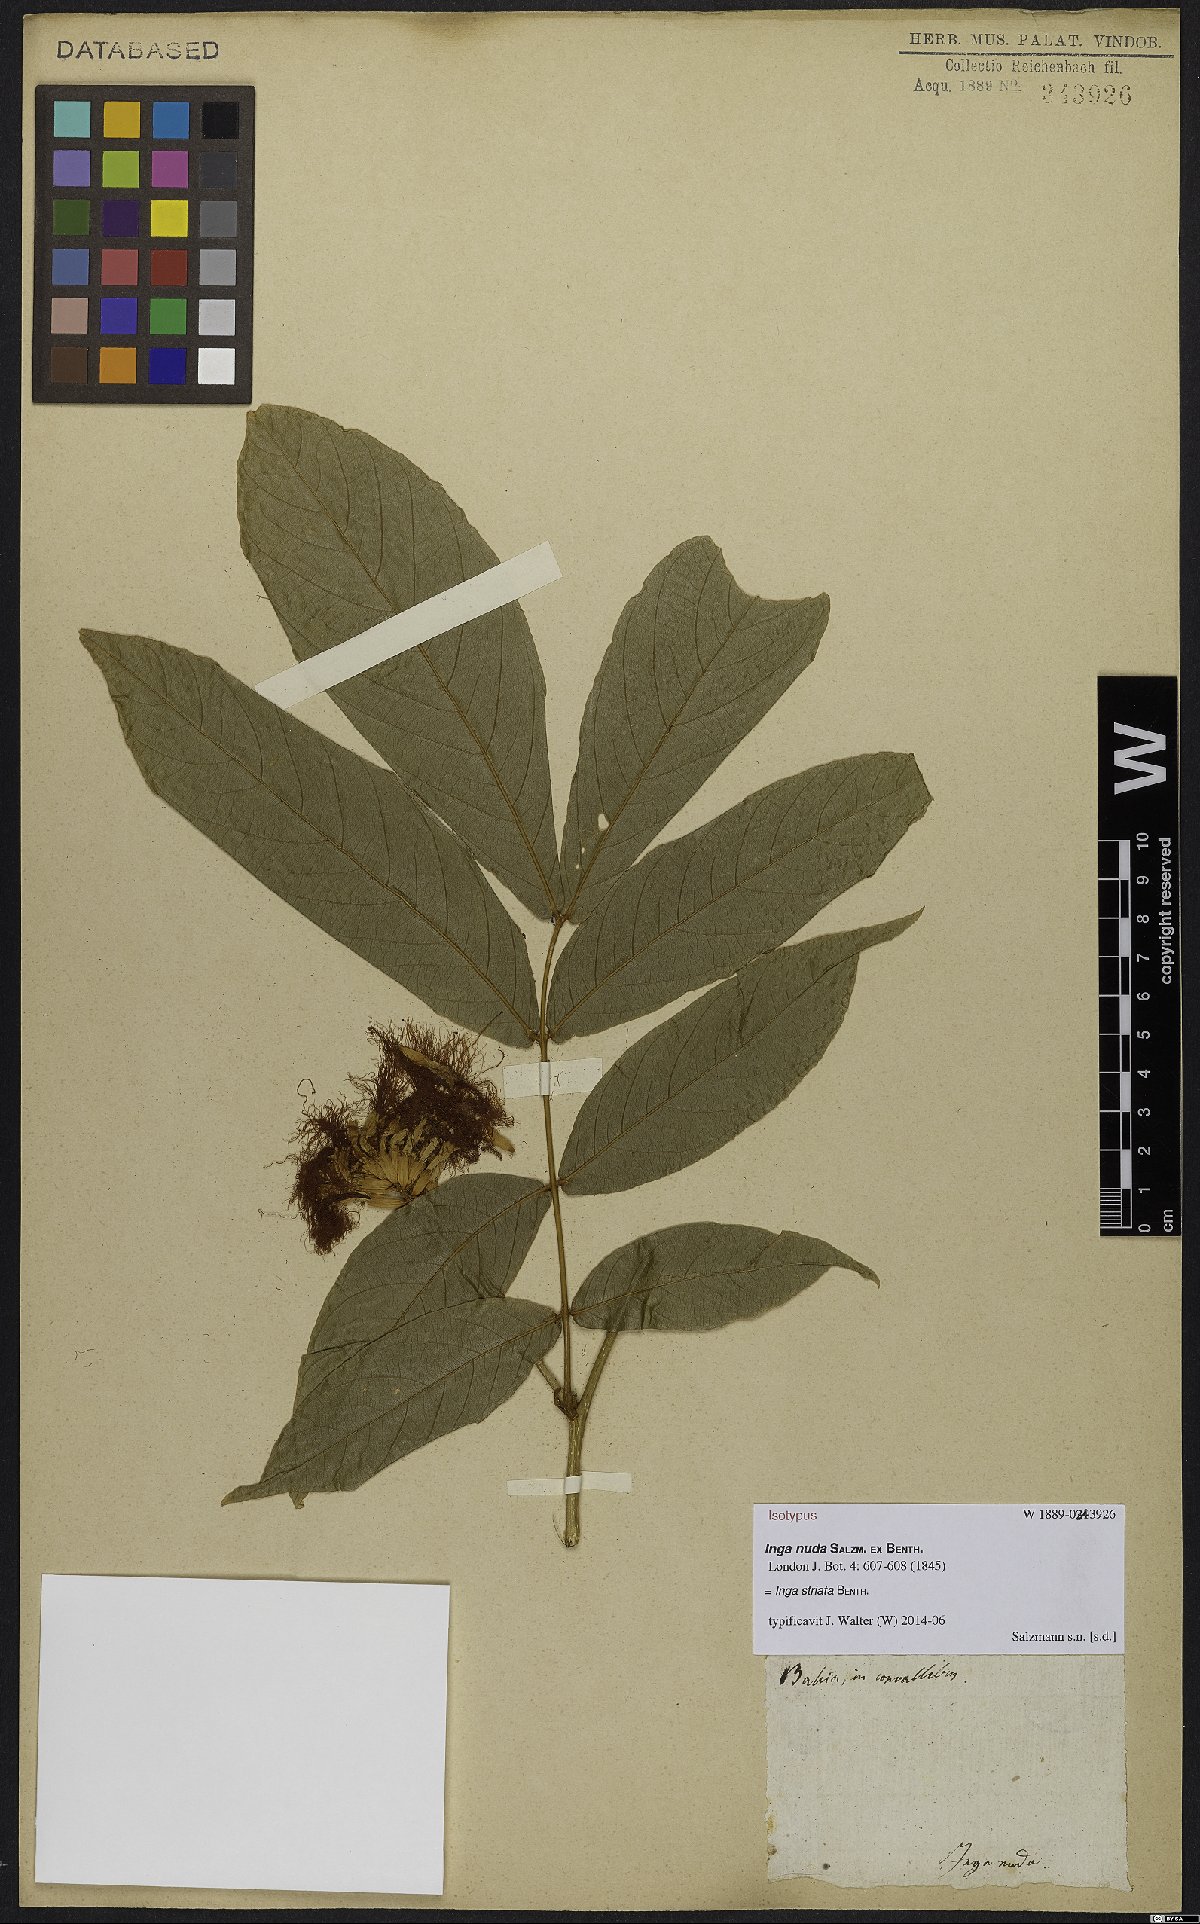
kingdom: Plantae
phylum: Tracheophyta
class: Magnoliopsida
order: Fabales
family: Fabaceae
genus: Inga
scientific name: Inga striata
